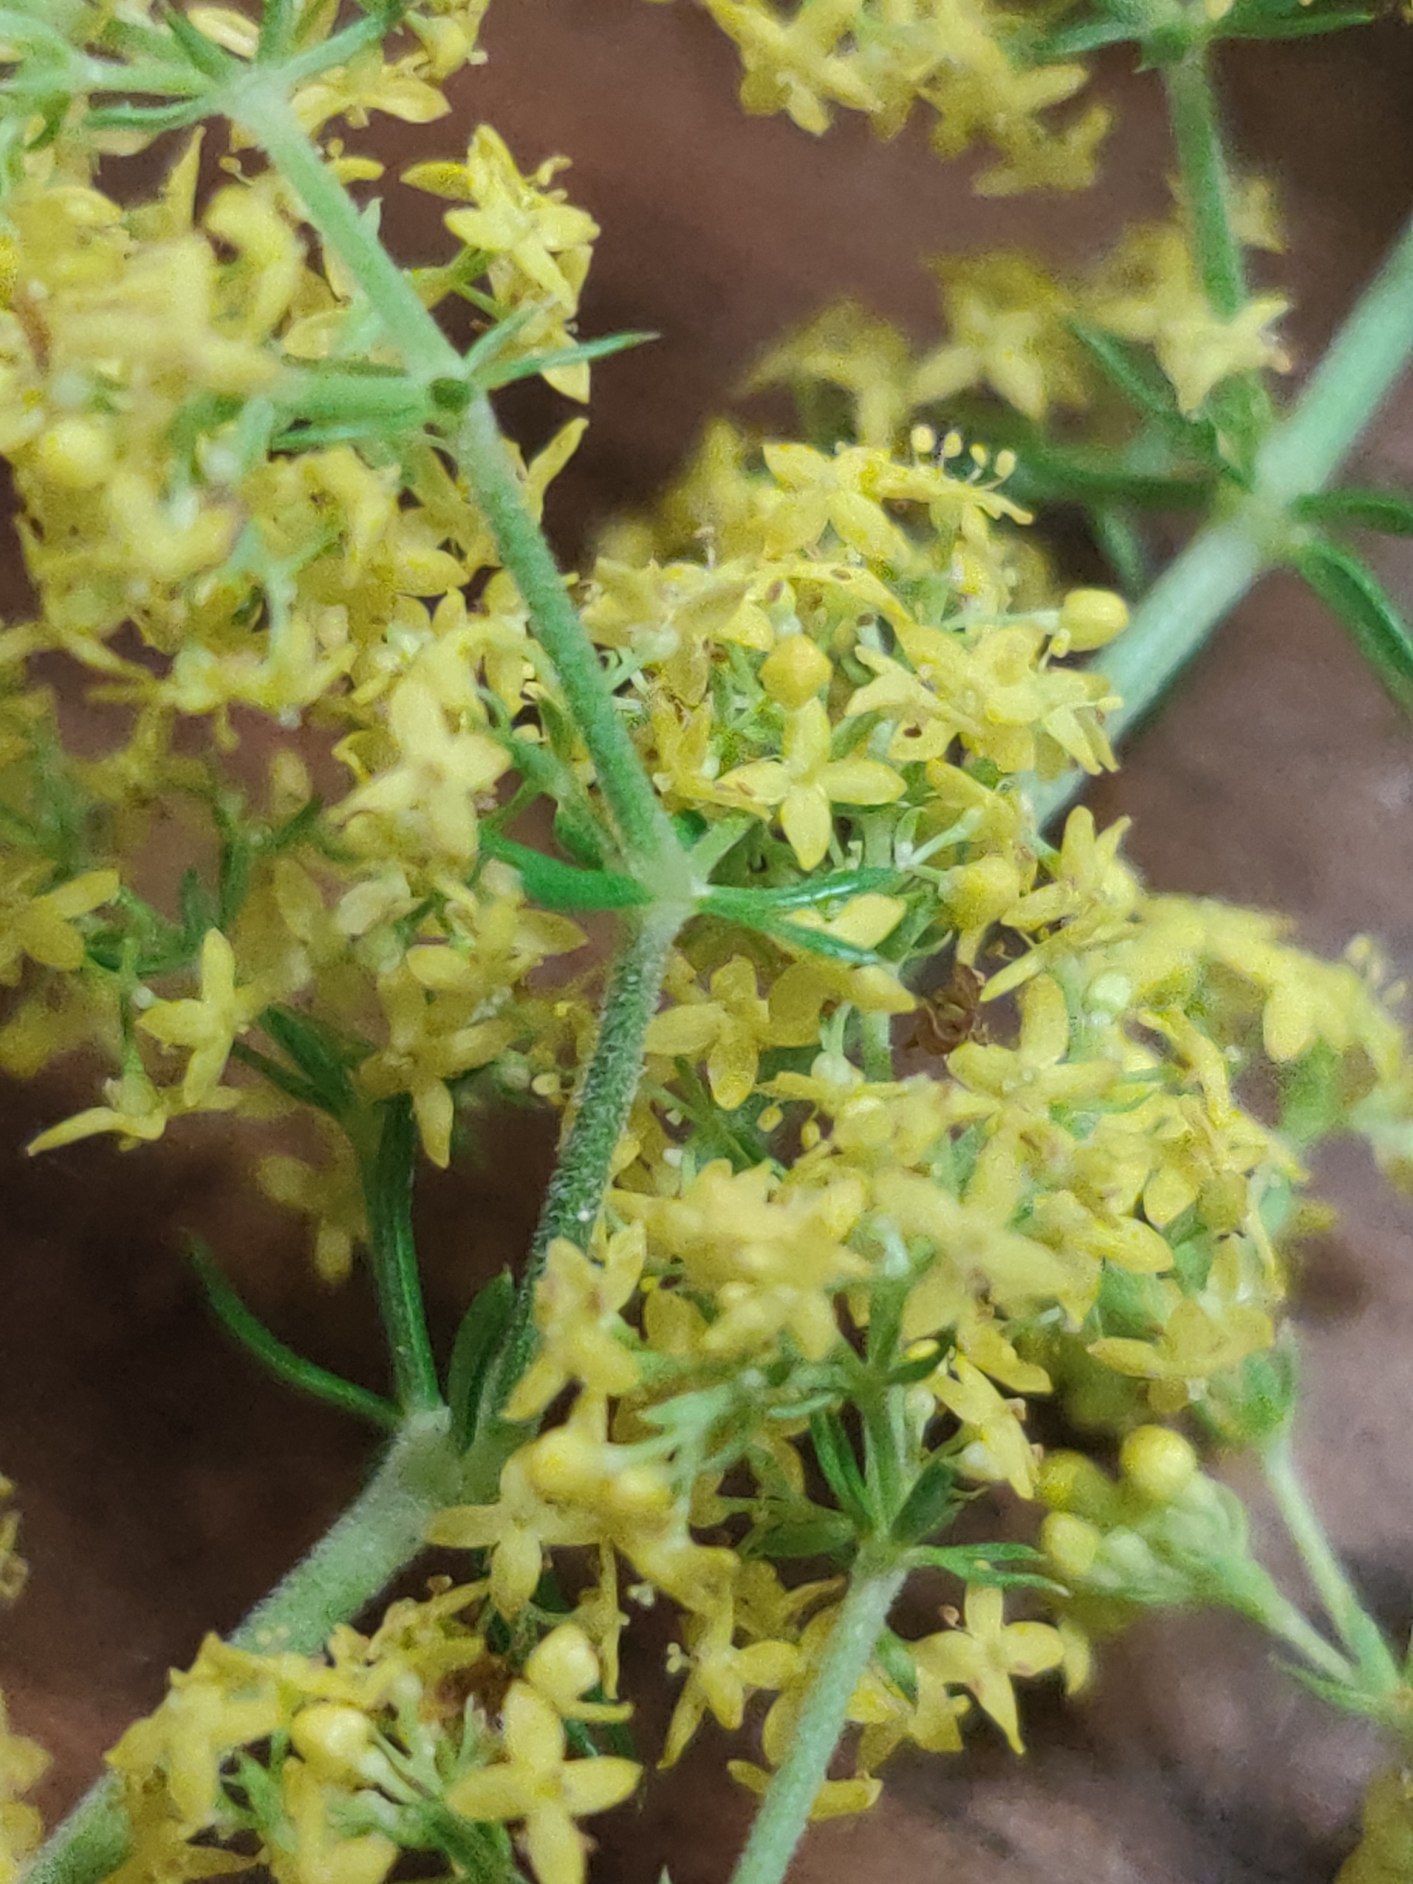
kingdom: Plantae
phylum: Tracheophyta
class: Magnoliopsida
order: Gentianales
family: Rubiaceae
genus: Galium
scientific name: Galium verum
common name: Gul snerre
